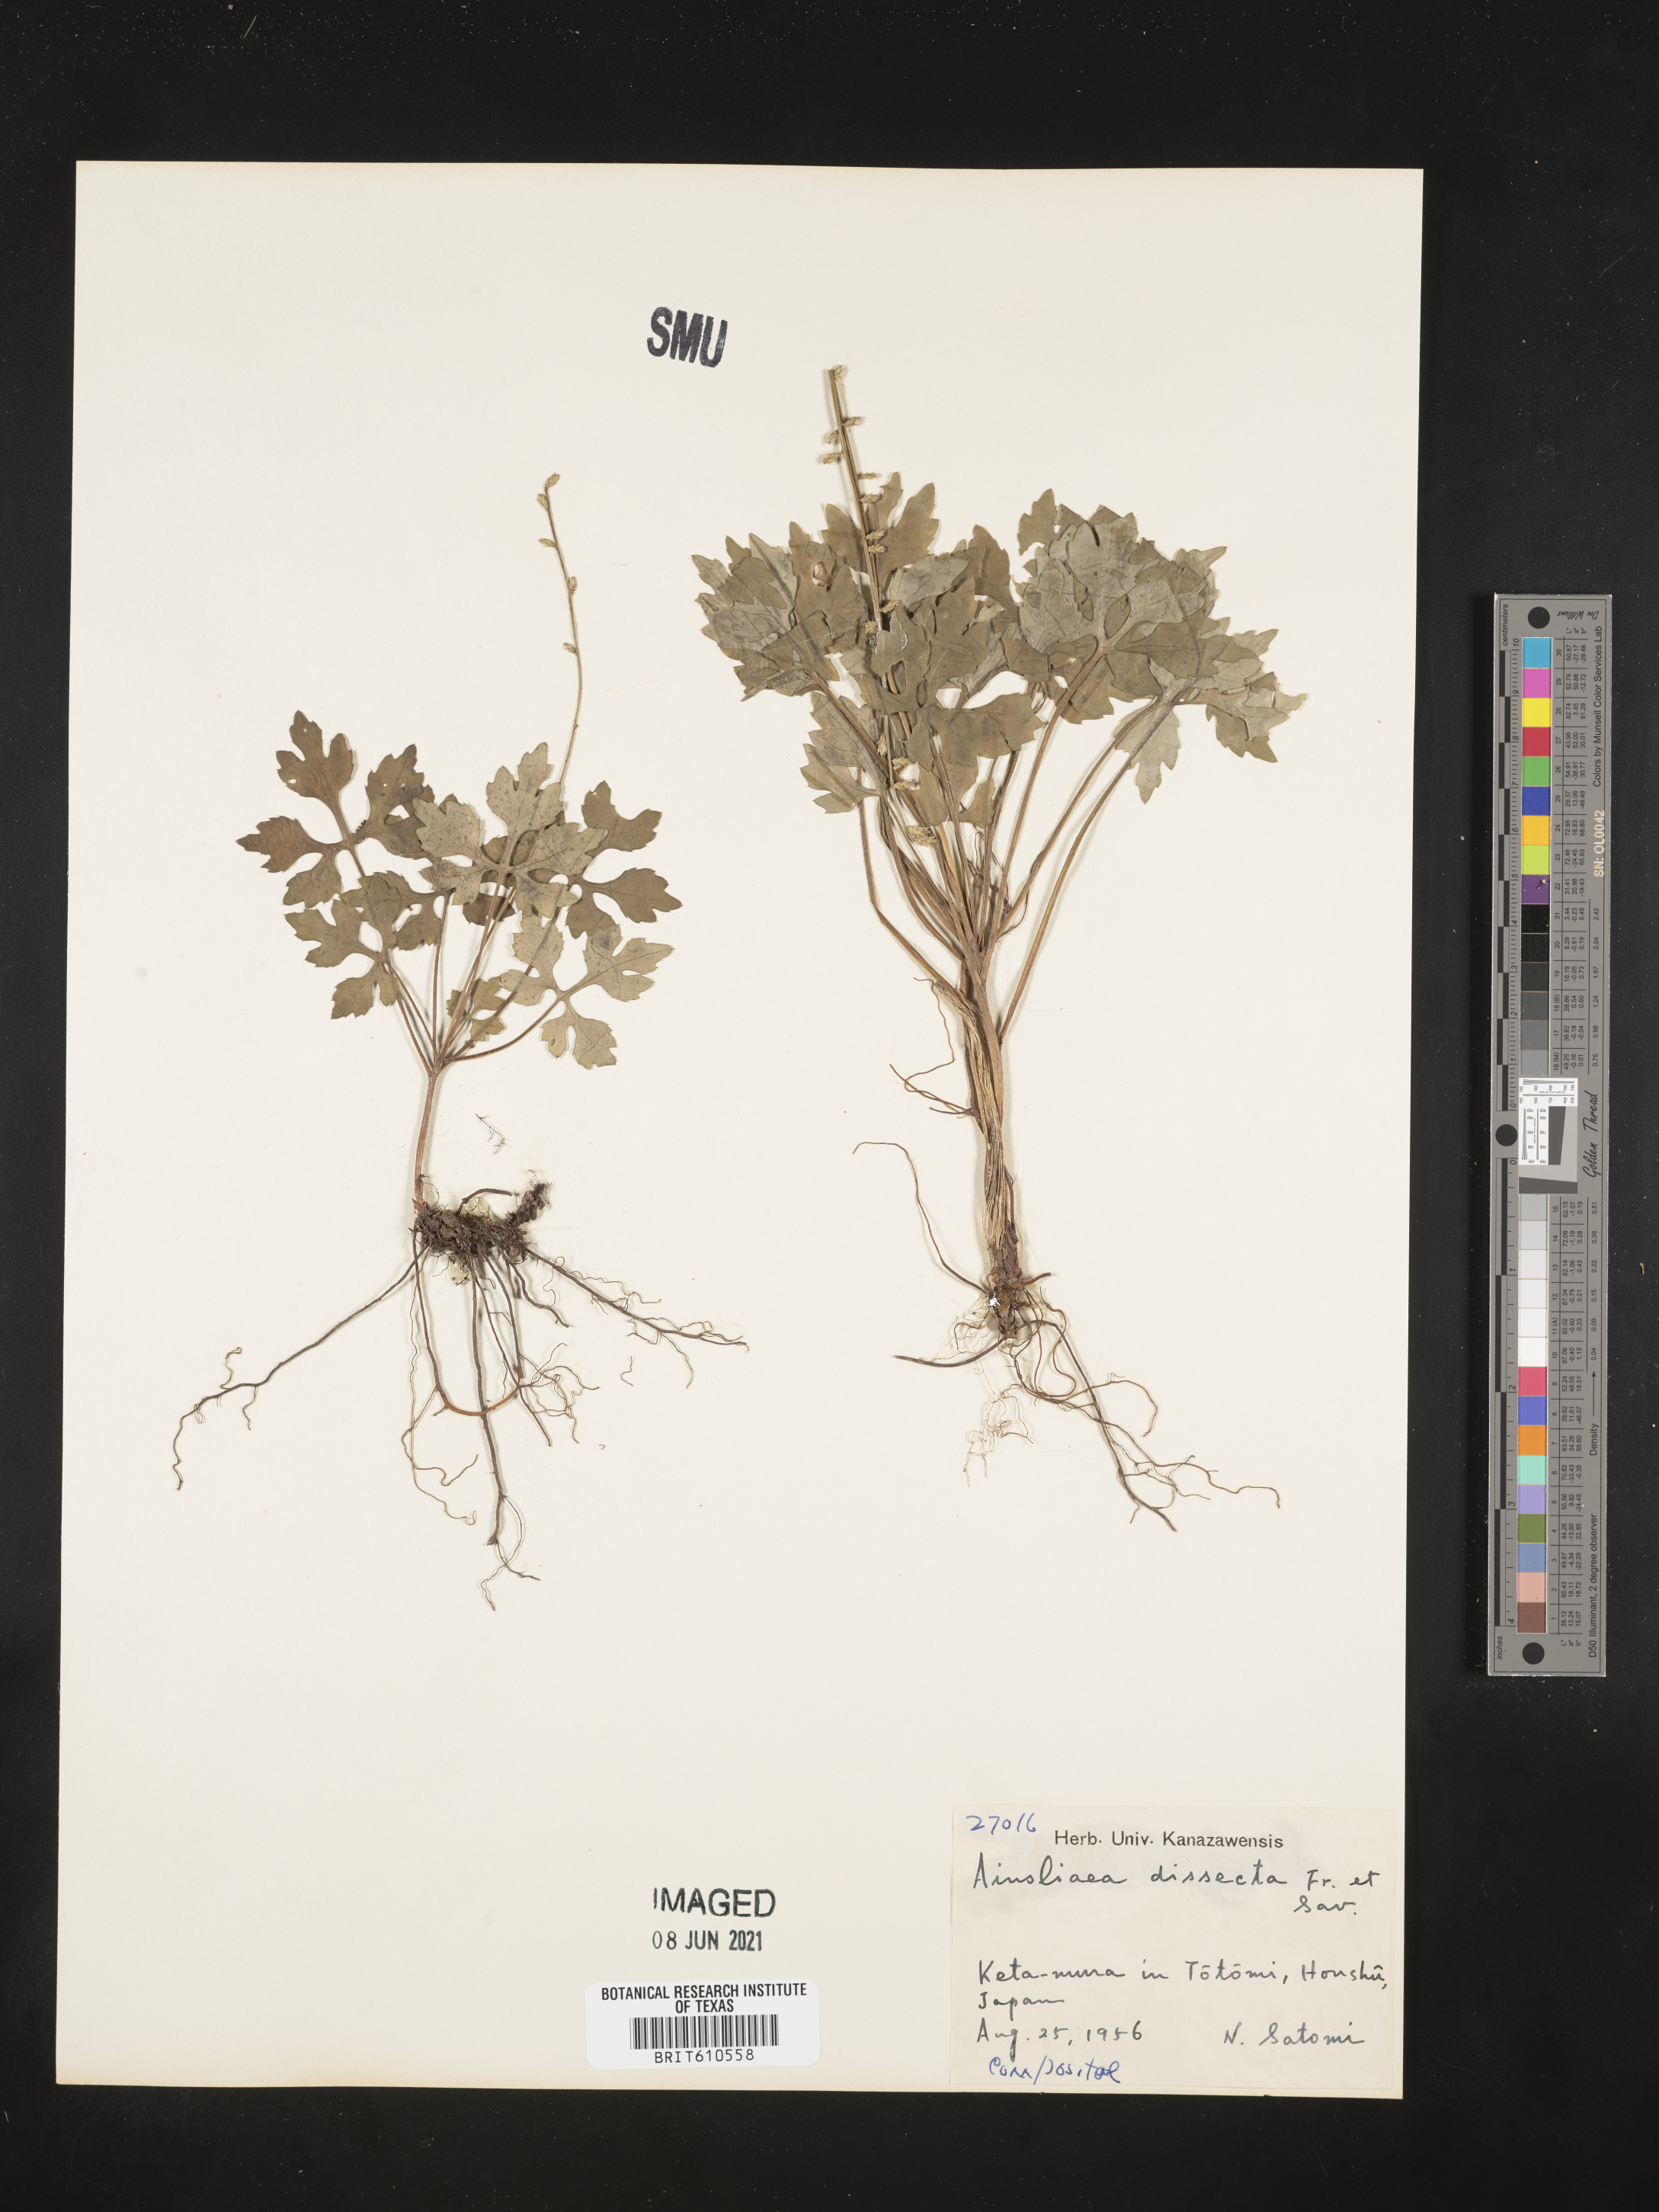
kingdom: Plantae
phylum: Tracheophyta
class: Magnoliopsida
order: Asterales
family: Asteraceae
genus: Ainsliaea
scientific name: Ainsliaea dissecta
